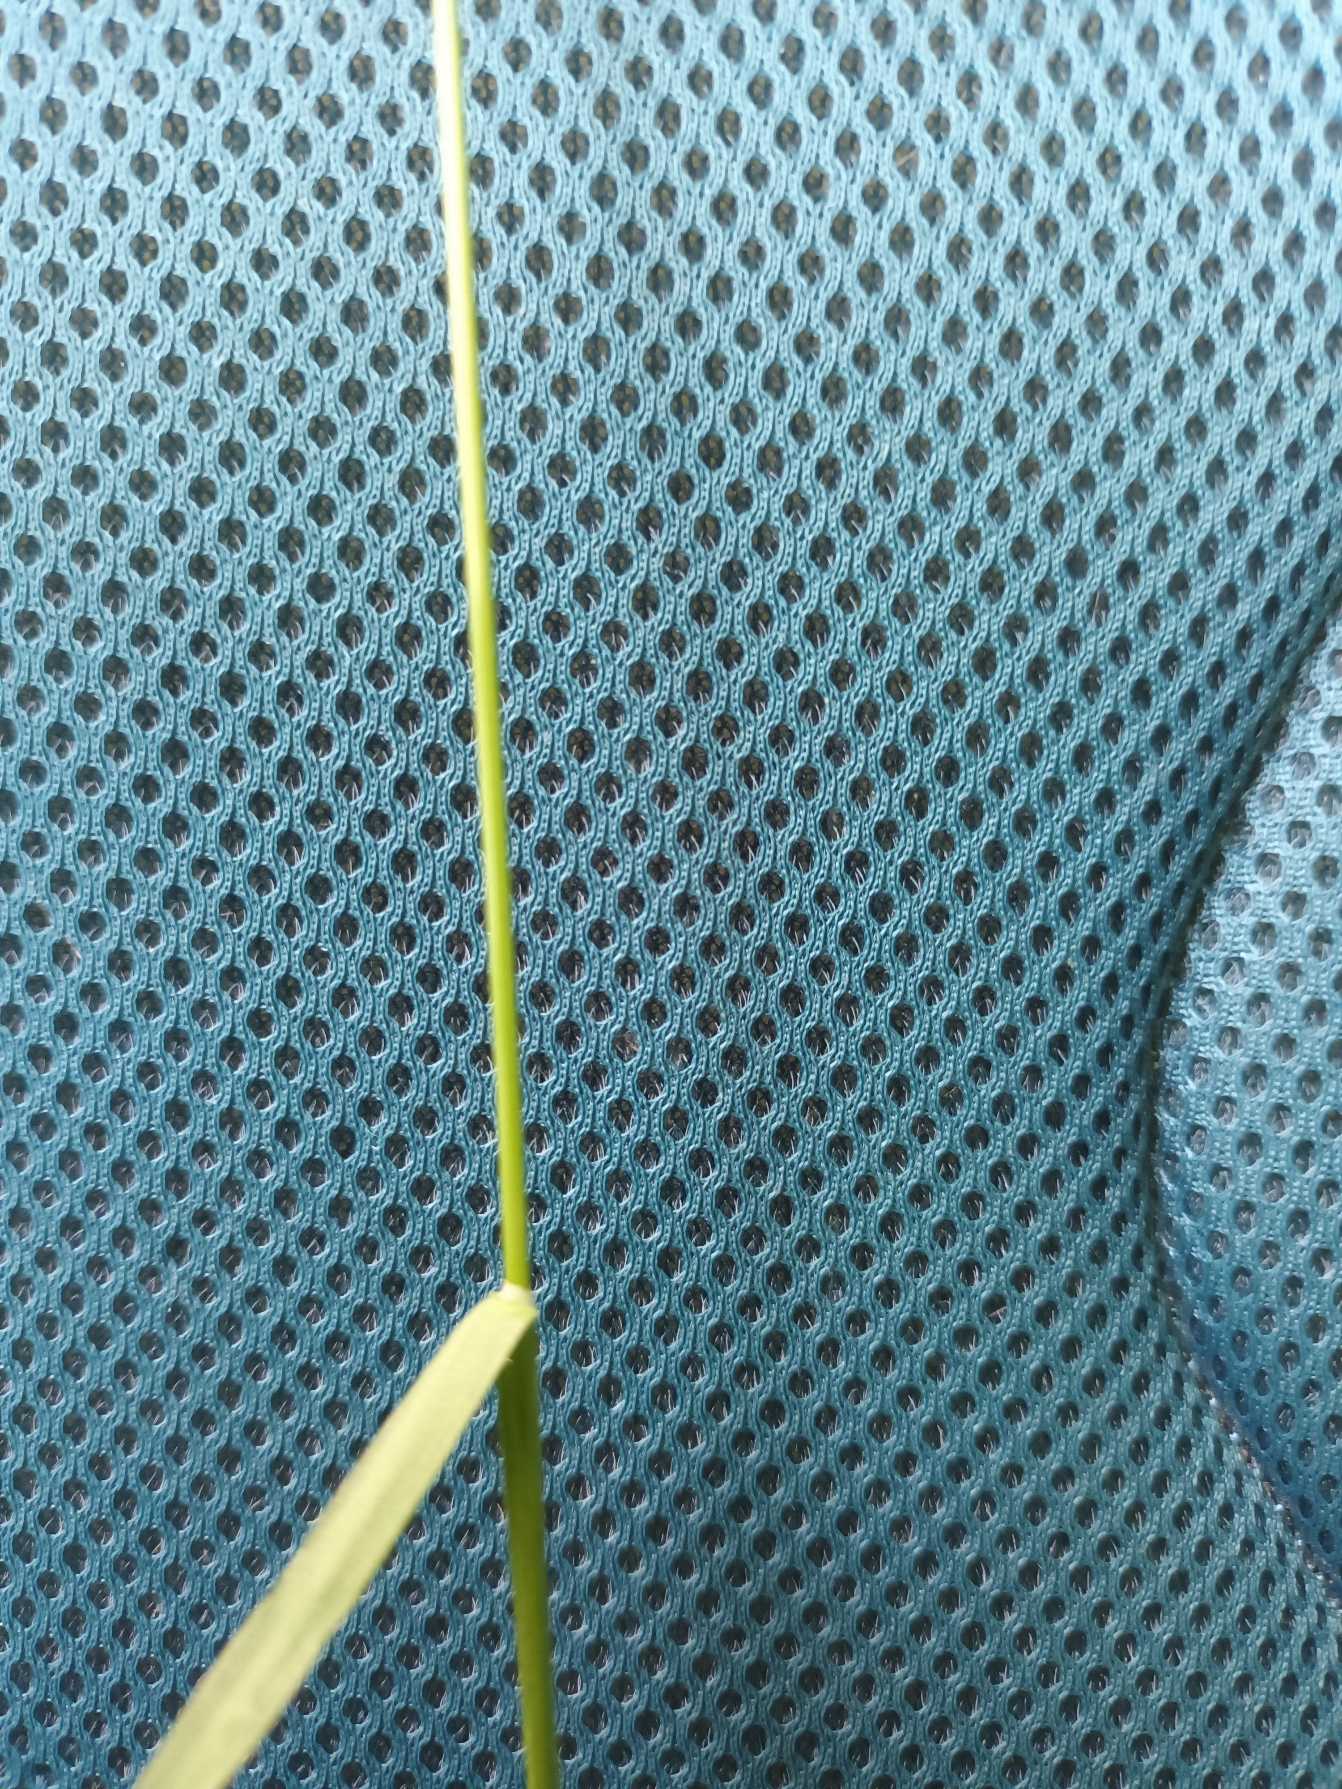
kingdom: Plantae
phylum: Tracheophyta
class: Liliopsida
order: Poales
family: Poaceae
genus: Poa
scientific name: Poa pratensis
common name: Eng-rapgræs
